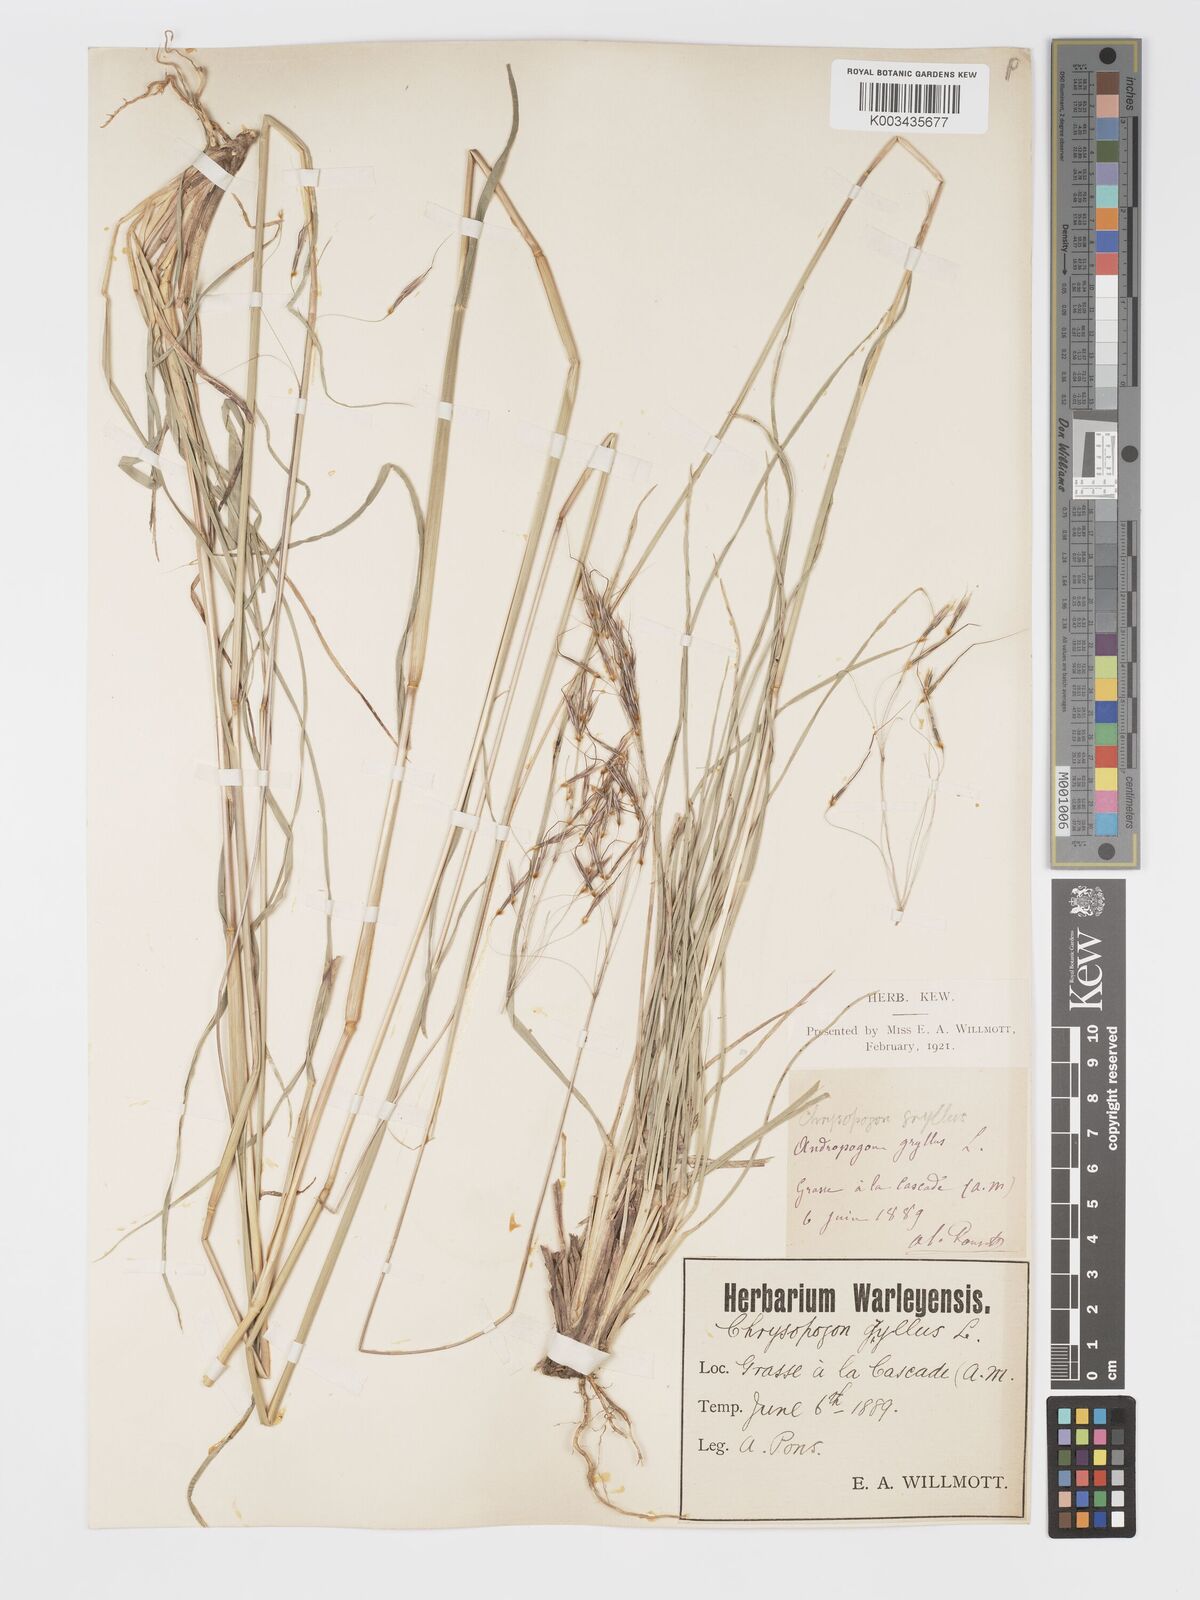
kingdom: Plantae
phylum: Tracheophyta
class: Liliopsida
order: Poales
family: Poaceae
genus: Chrysopogon
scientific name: Chrysopogon gryllus
